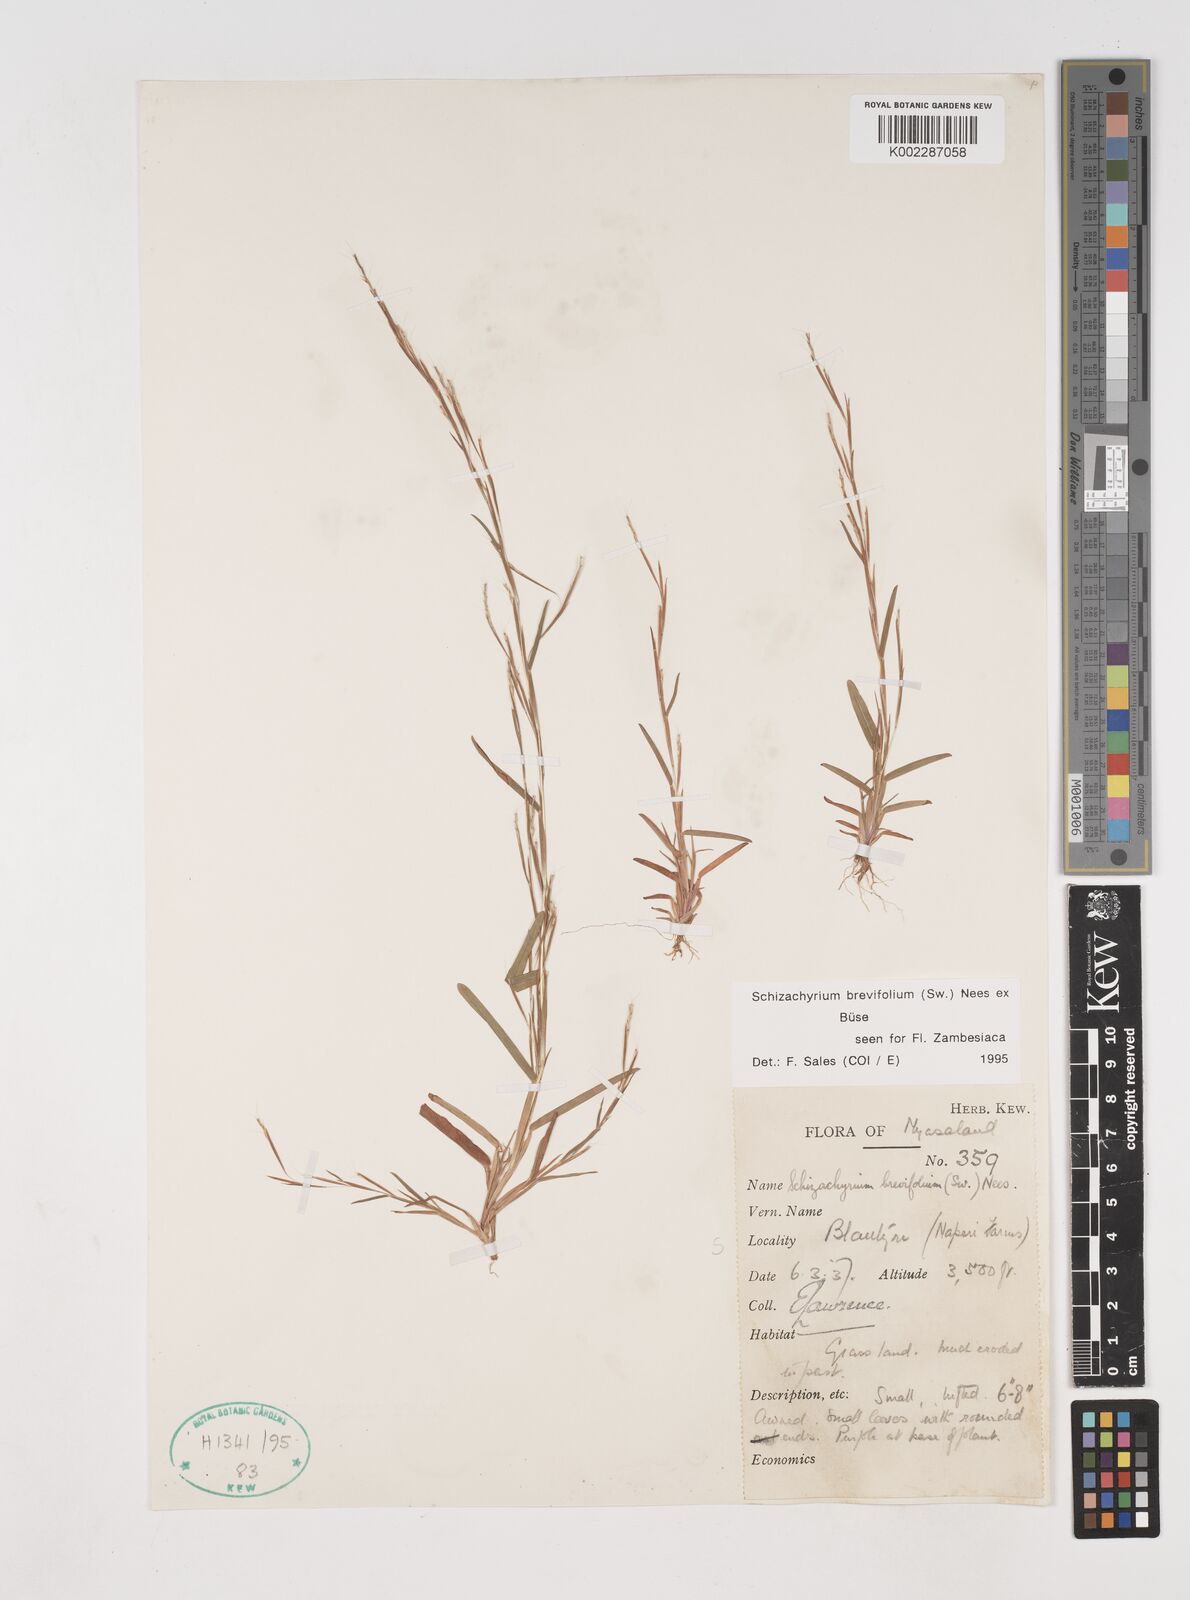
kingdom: Plantae
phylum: Tracheophyta
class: Liliopsida
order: Poales
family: Poaceae
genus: Schizachyrium
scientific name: Schizachyrium brevifolium
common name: Serillo dulce
